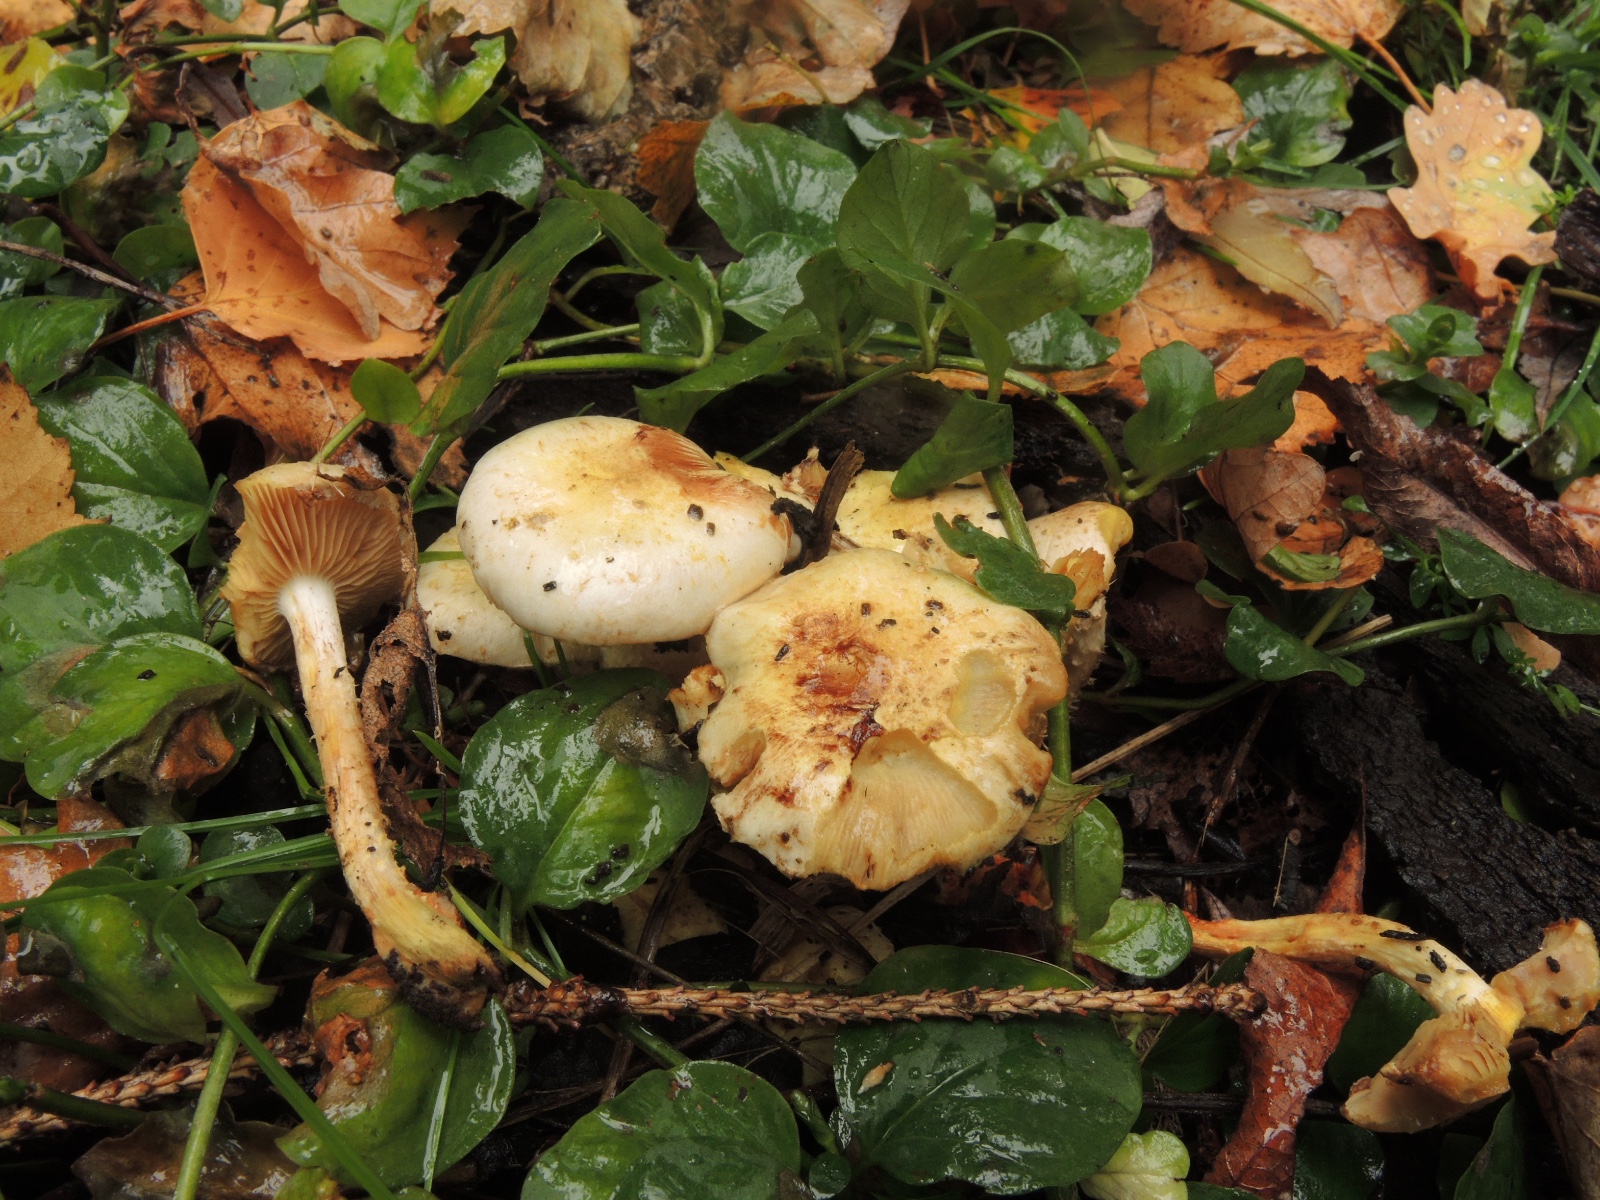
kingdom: Fungi
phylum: Basidiomycota
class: Agaricomycetes
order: Agaricales
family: Strophariaceae
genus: Pholiota
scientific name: Pholiota gummosa
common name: grøngul skælhat
